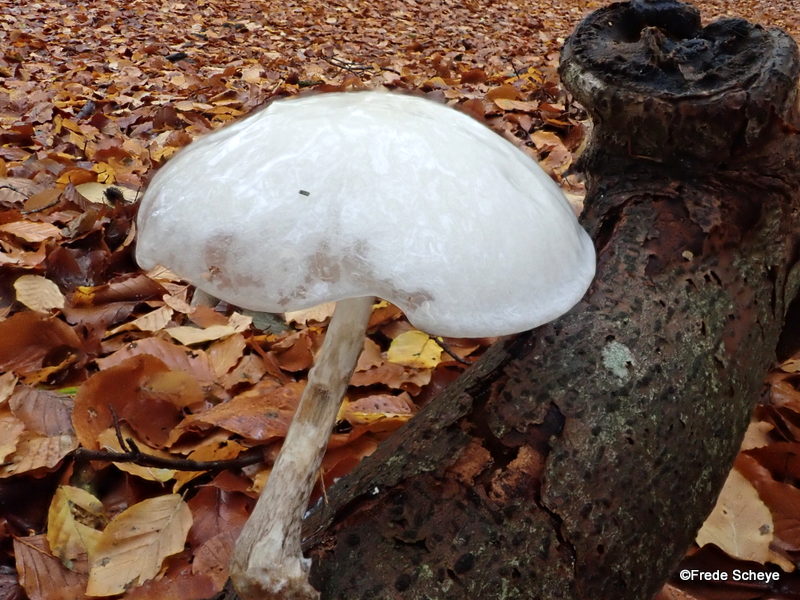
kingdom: Fungi
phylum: Basidiomycota
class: Agaricomycetes
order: Agaricales
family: Physalacriaceae
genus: Mucidula
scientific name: Mucidula mucida
